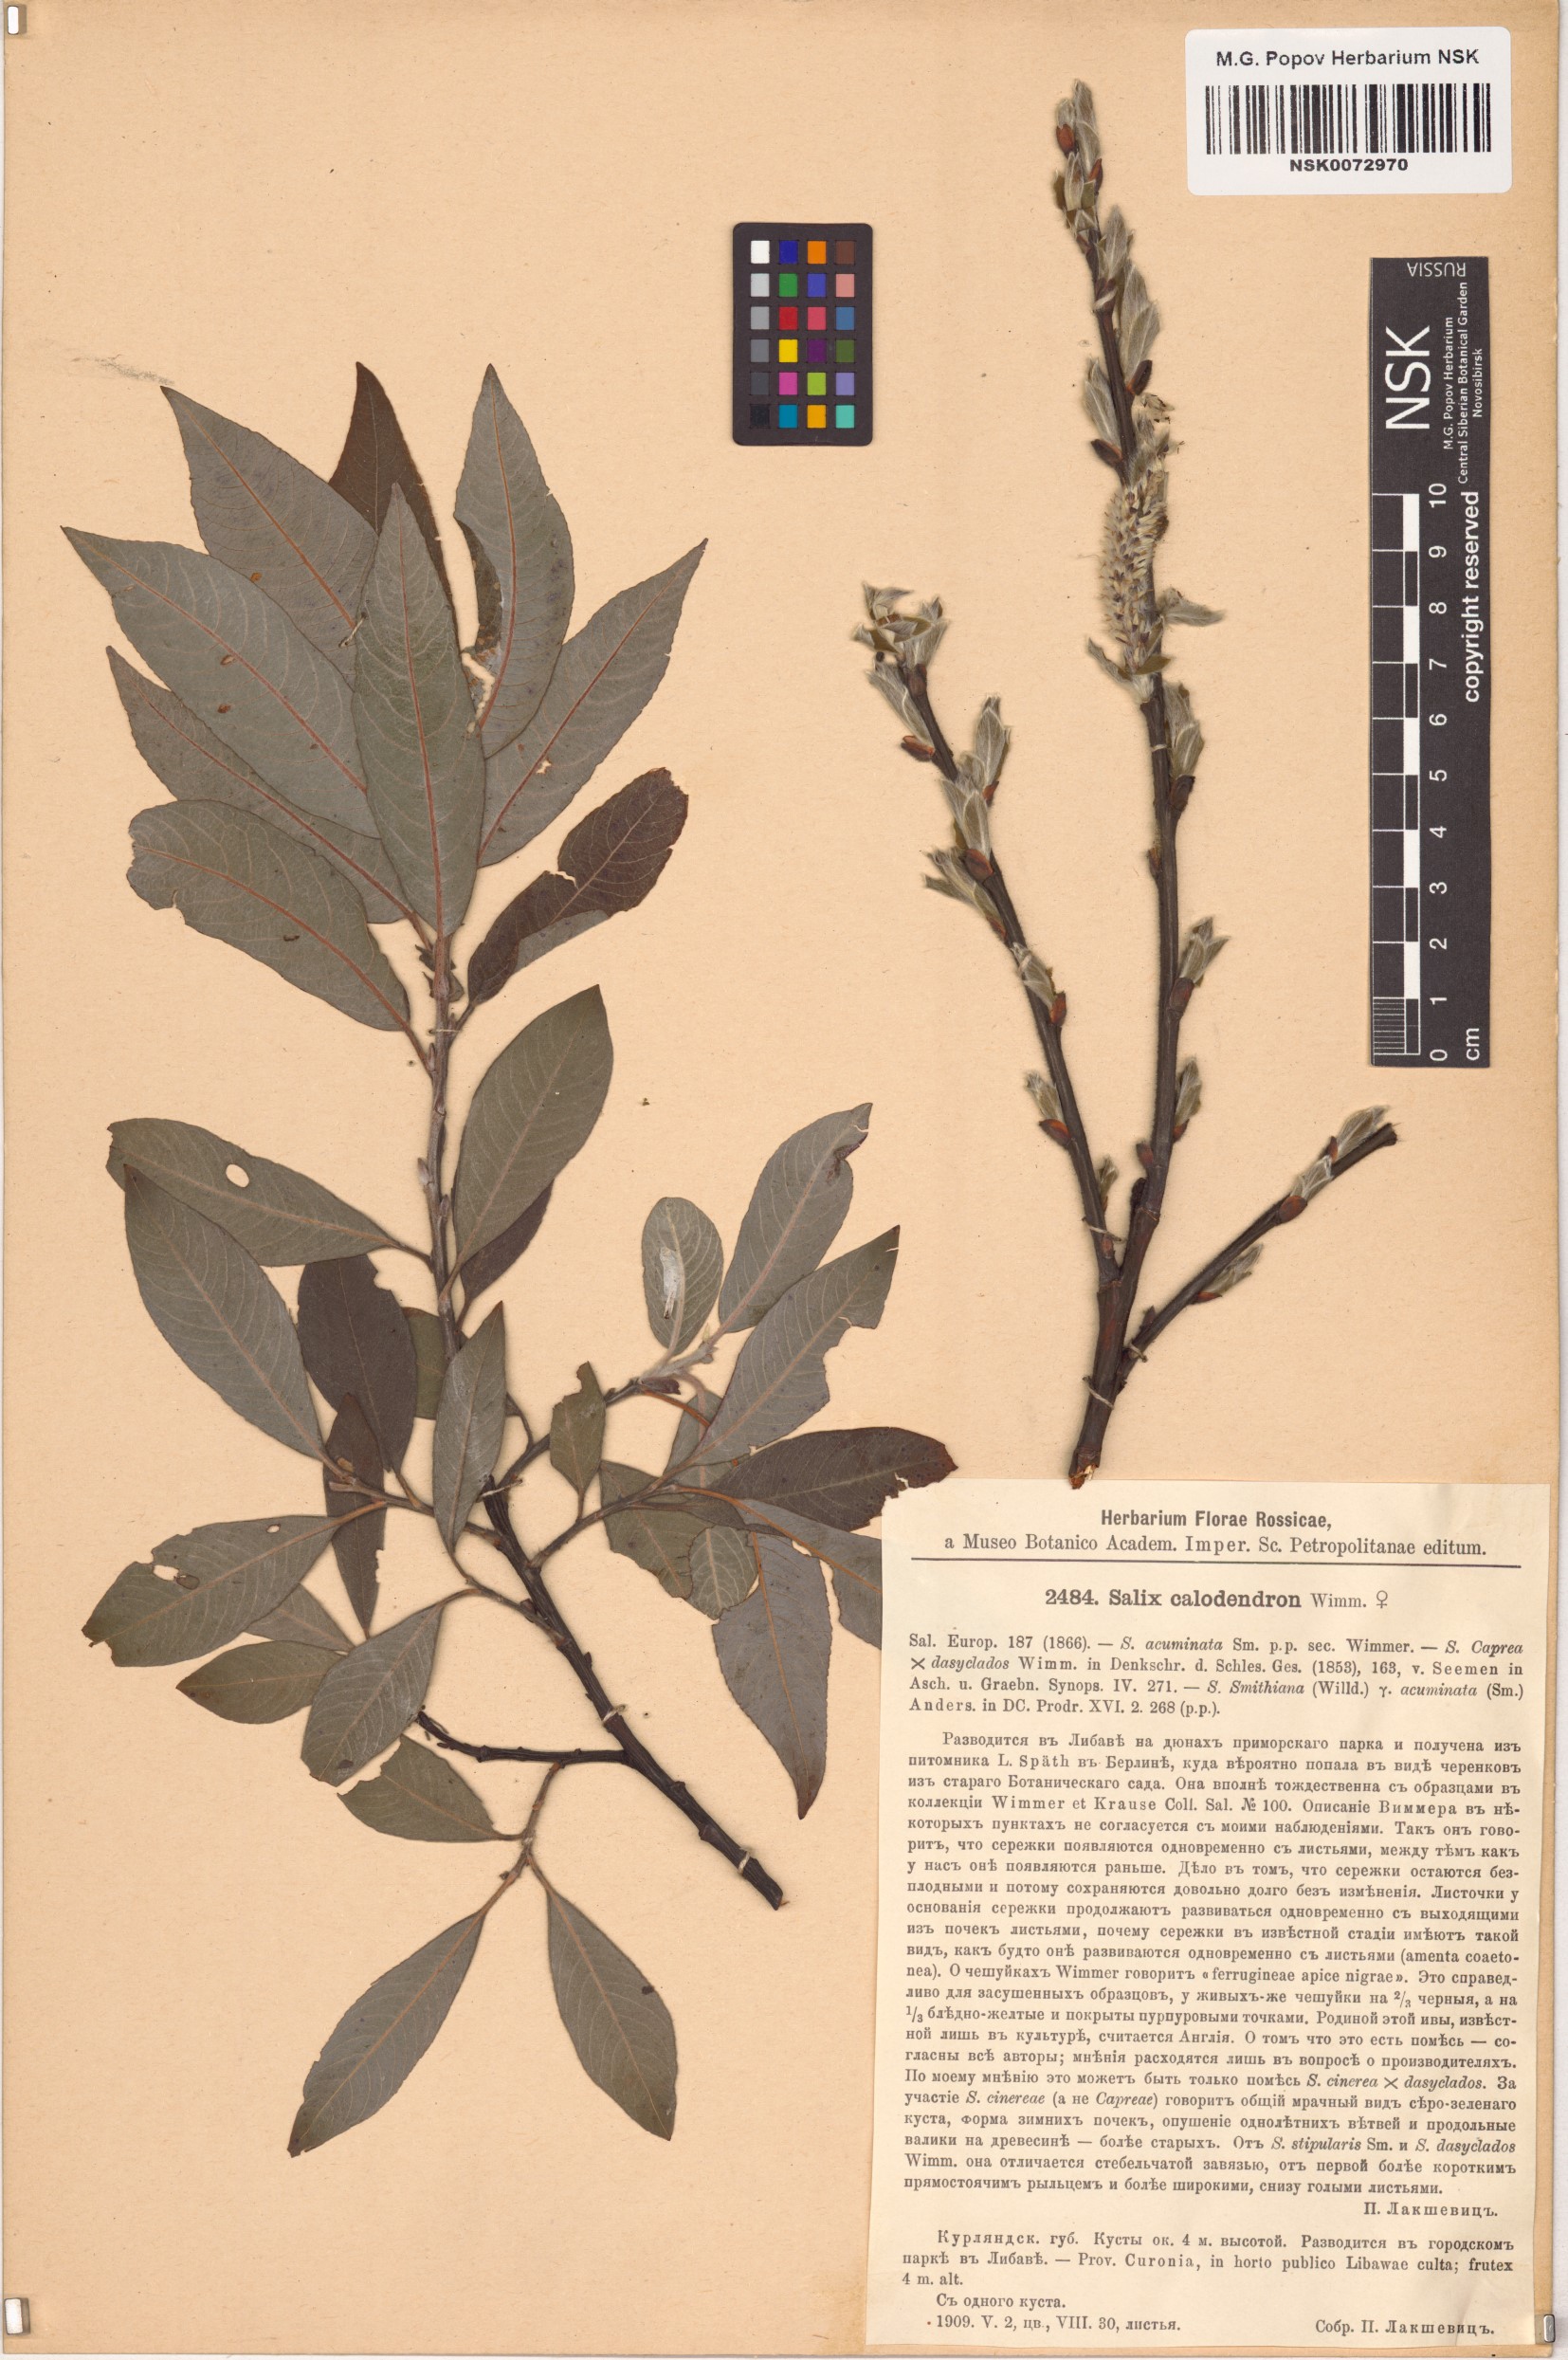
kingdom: Plantae
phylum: Tracheophyta
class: Magnoliopsida
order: Malpighiales
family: Salicaceae
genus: Salix
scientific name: Salix calodendron
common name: Holme willow
